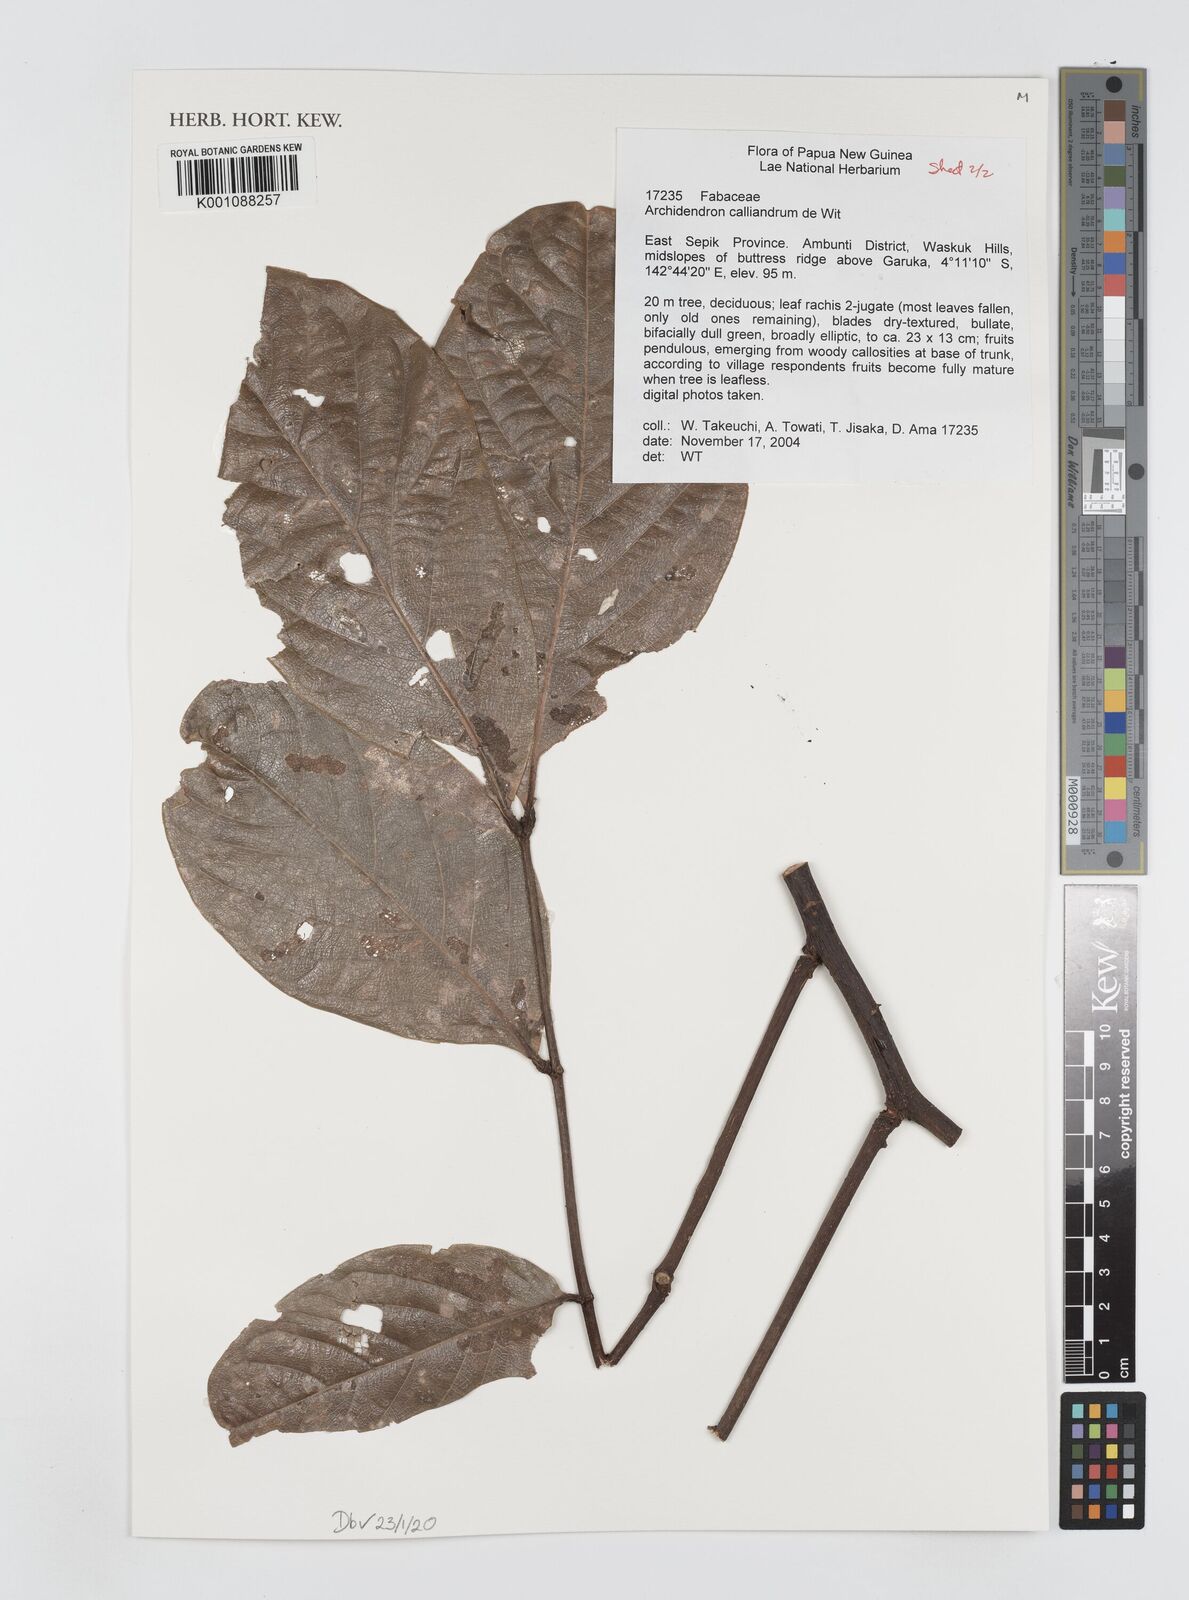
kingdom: Plantae
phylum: Tracheophyta
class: Magnoliopsida
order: Fabales
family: Fabaceae
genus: Archidendron
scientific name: Archidendron calliandrum
